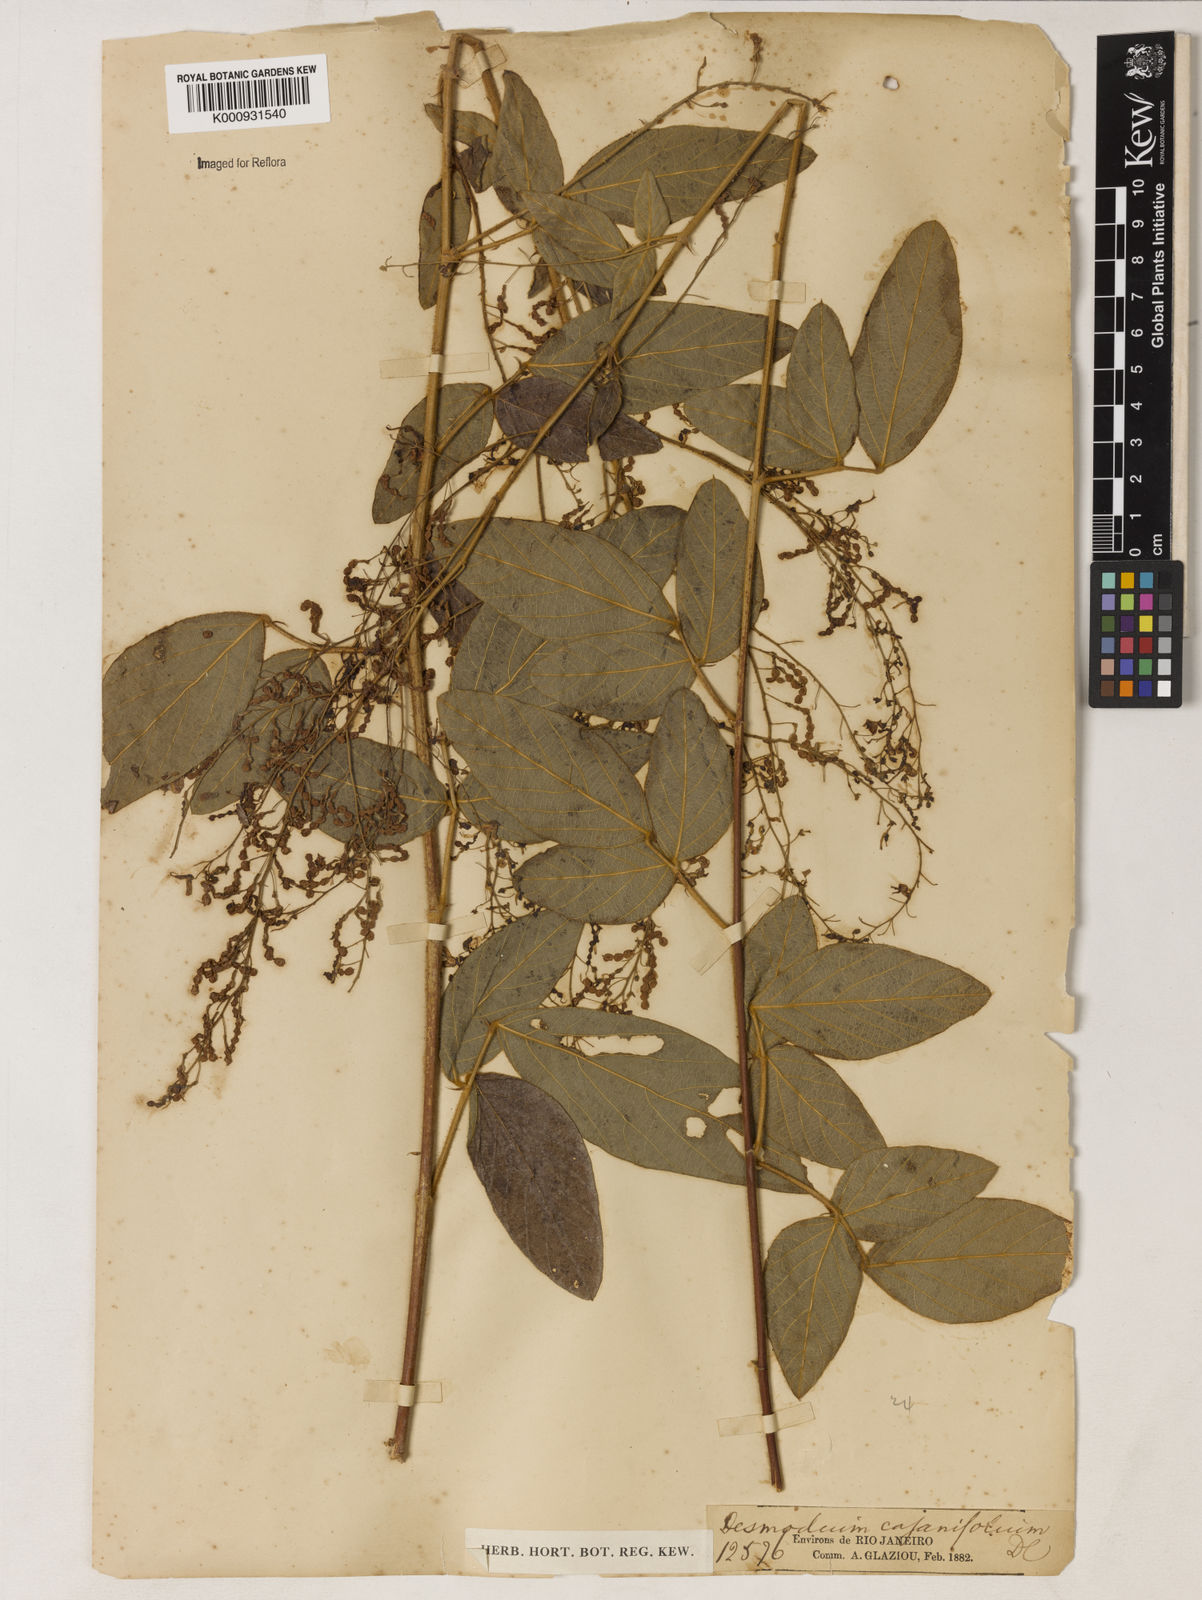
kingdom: Plantae
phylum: Tracheophyta
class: Magnoliopsida
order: Fabales
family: Fabaceae
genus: Desmodium
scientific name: Desmodium subsecundum
